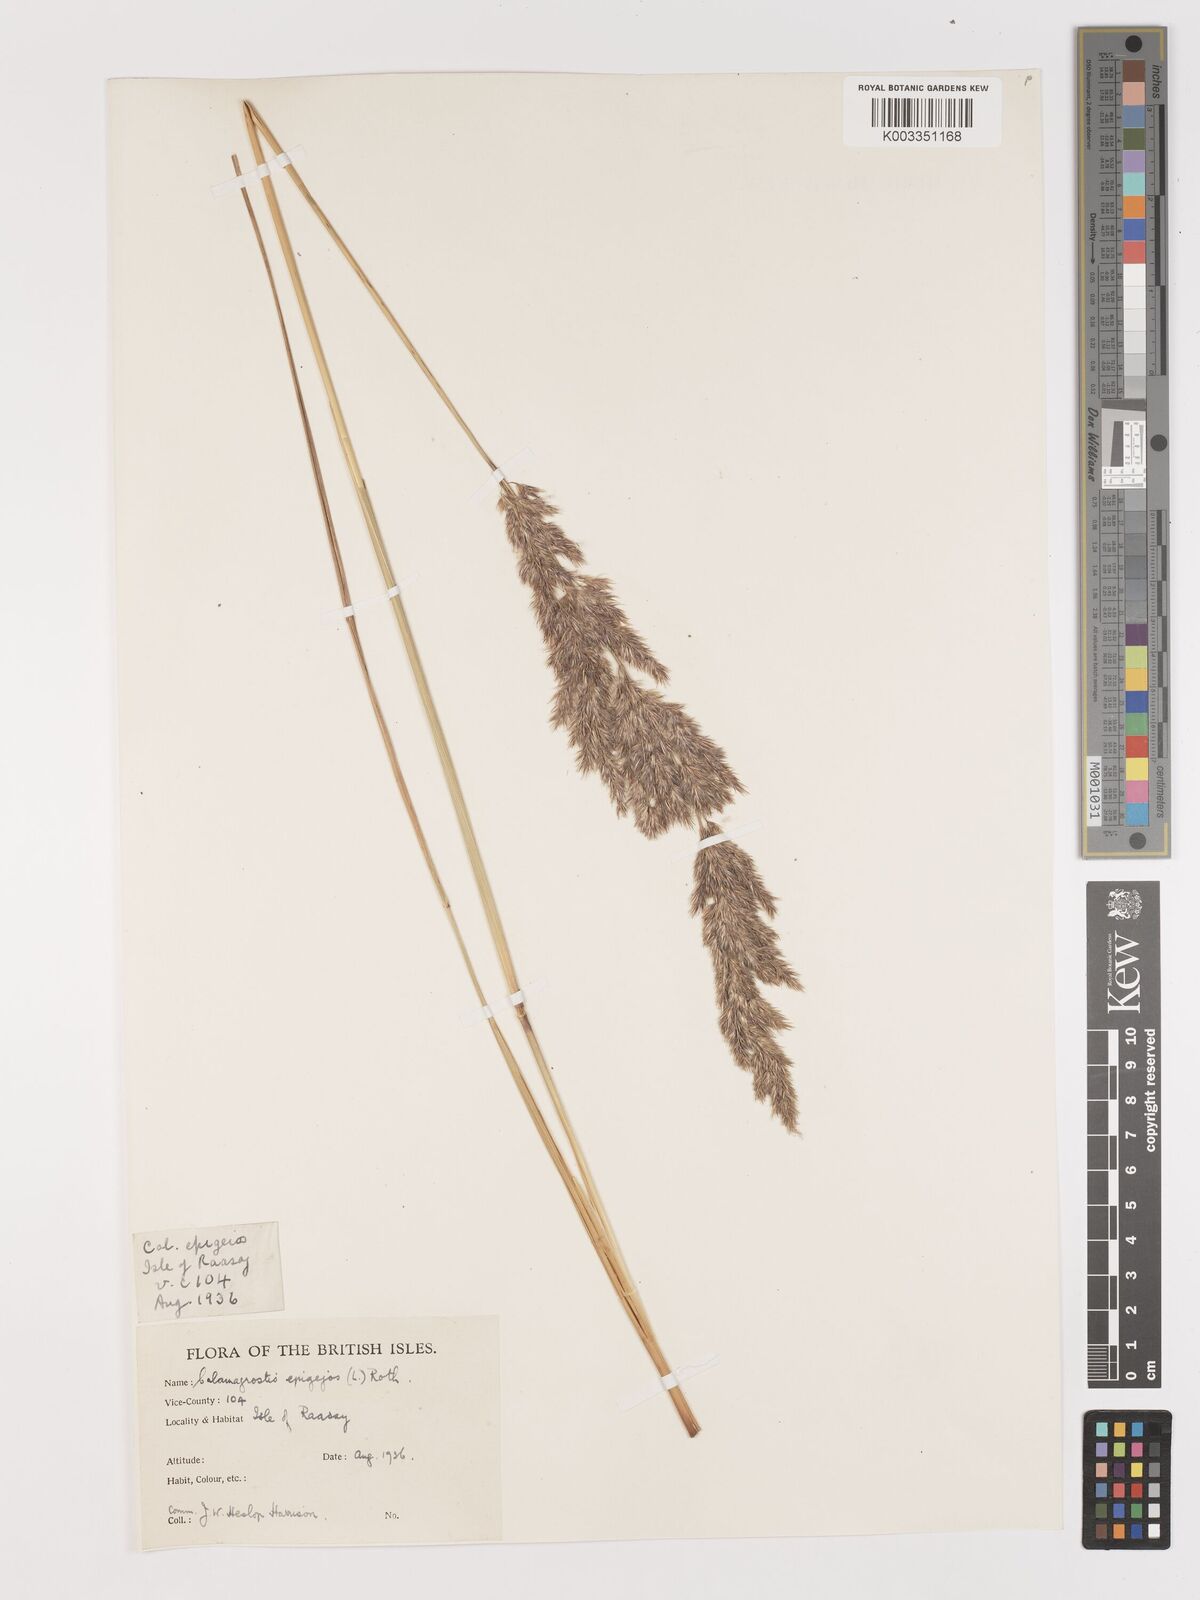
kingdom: Plantae
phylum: Tracheophyta
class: Liliopsida
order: Poales
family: Poaceae
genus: Calamagrostis
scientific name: Calamagrostis
